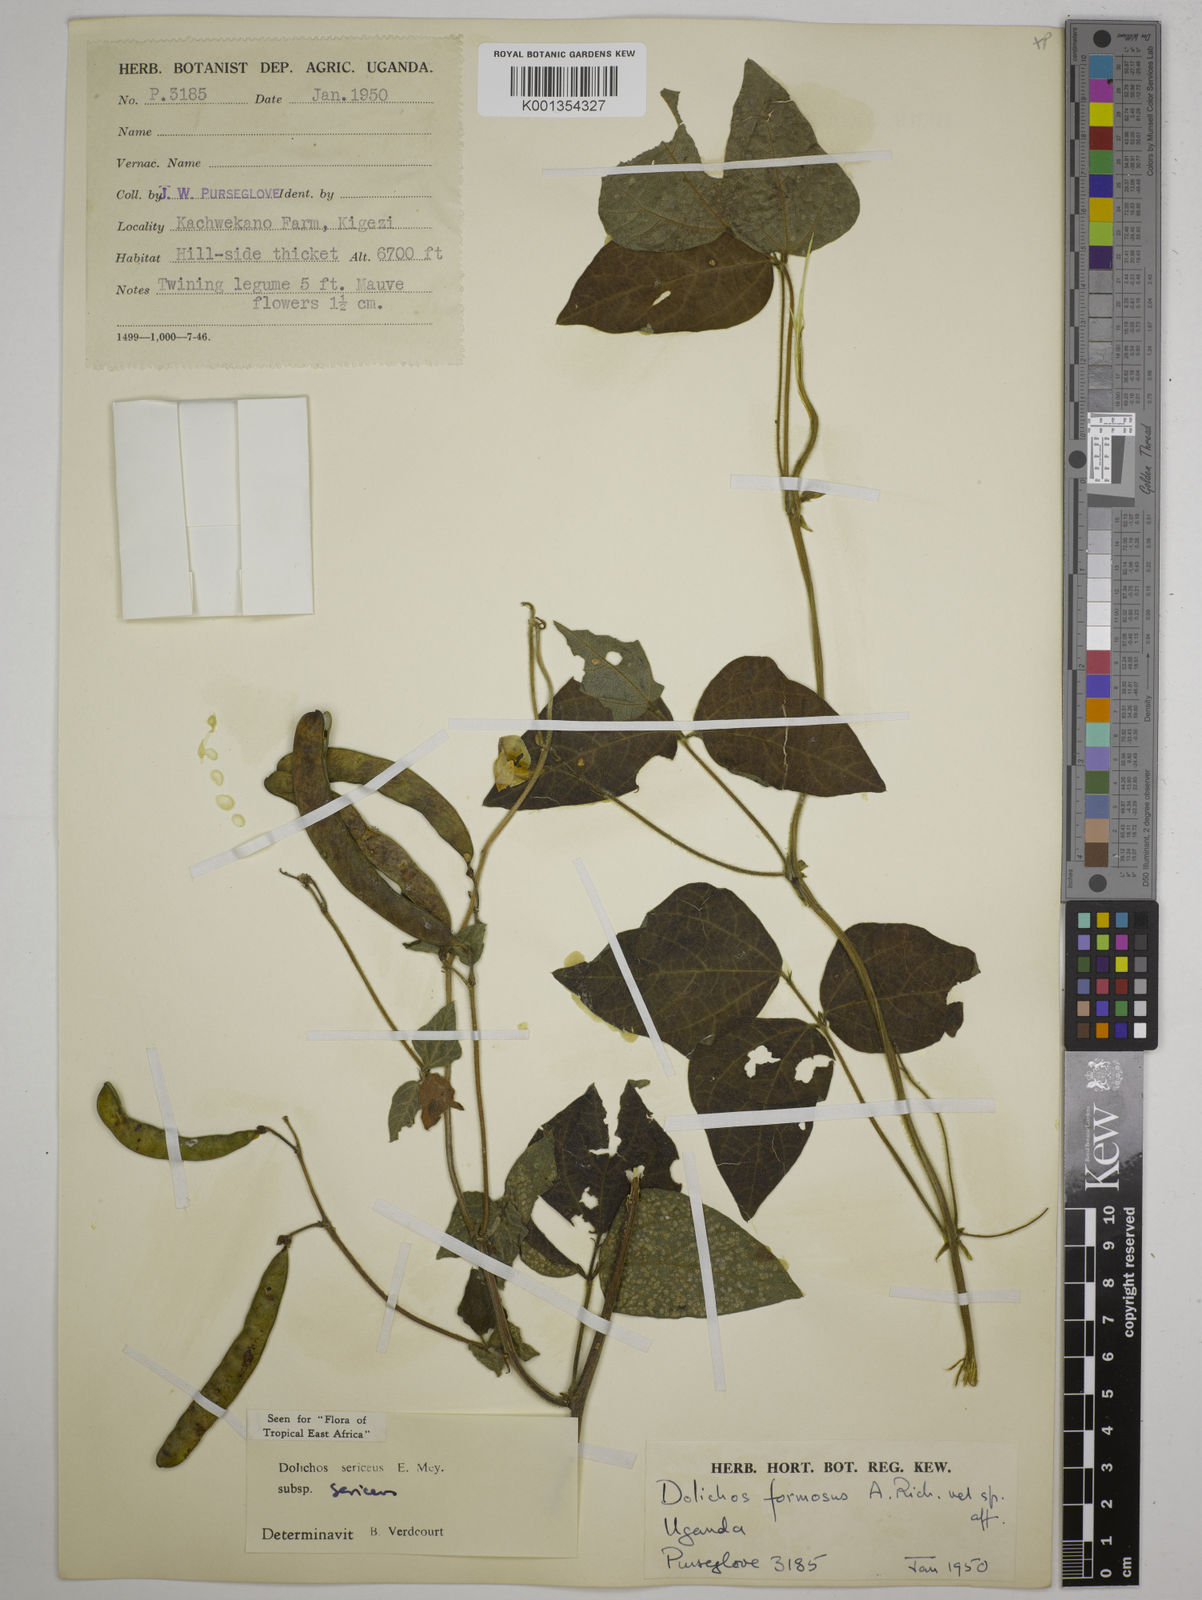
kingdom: Plantae
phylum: Tracheophyta
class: Magnoliopsida
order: Fabales
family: Fabaceae
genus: Dolichos
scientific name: Dolichos sericeus
